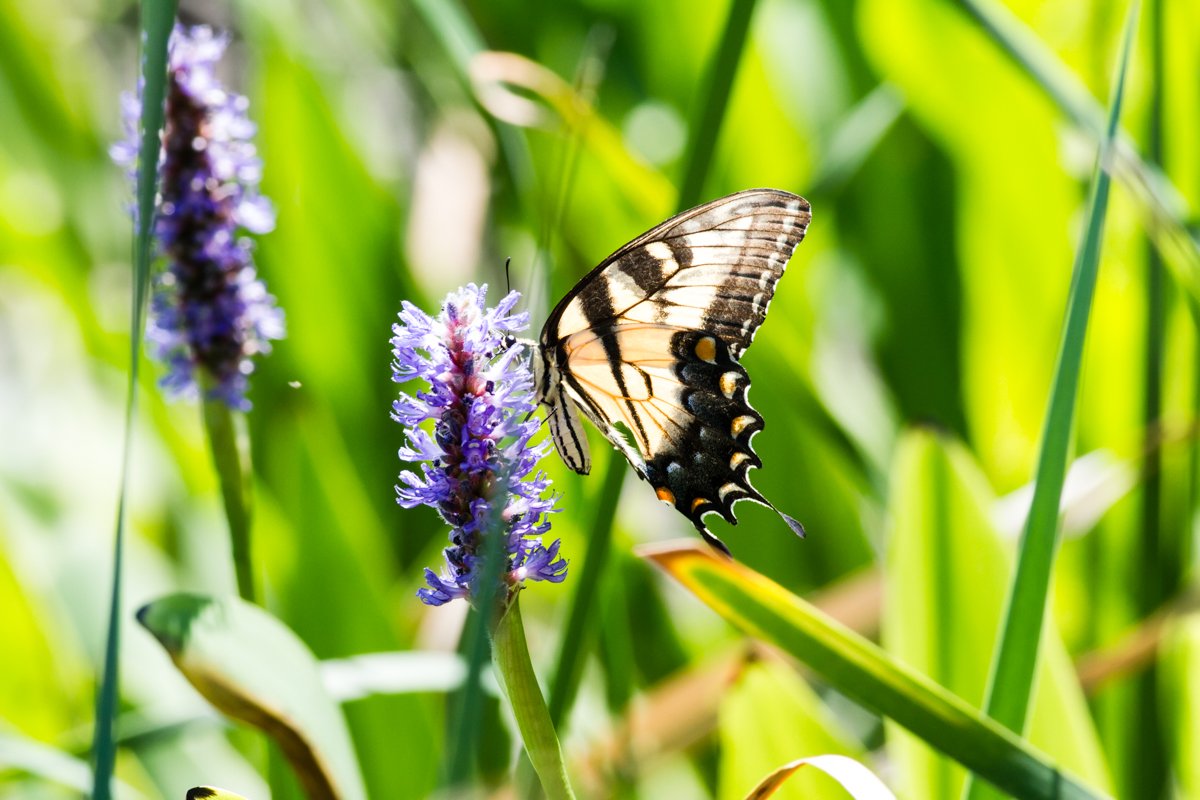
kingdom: Animalia
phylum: Arthropoda
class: Insecta
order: Lepidoptera
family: Papilionidae
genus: Pterourus
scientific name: Pterourus glaucus
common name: Eastern Tiger Swallowtail
